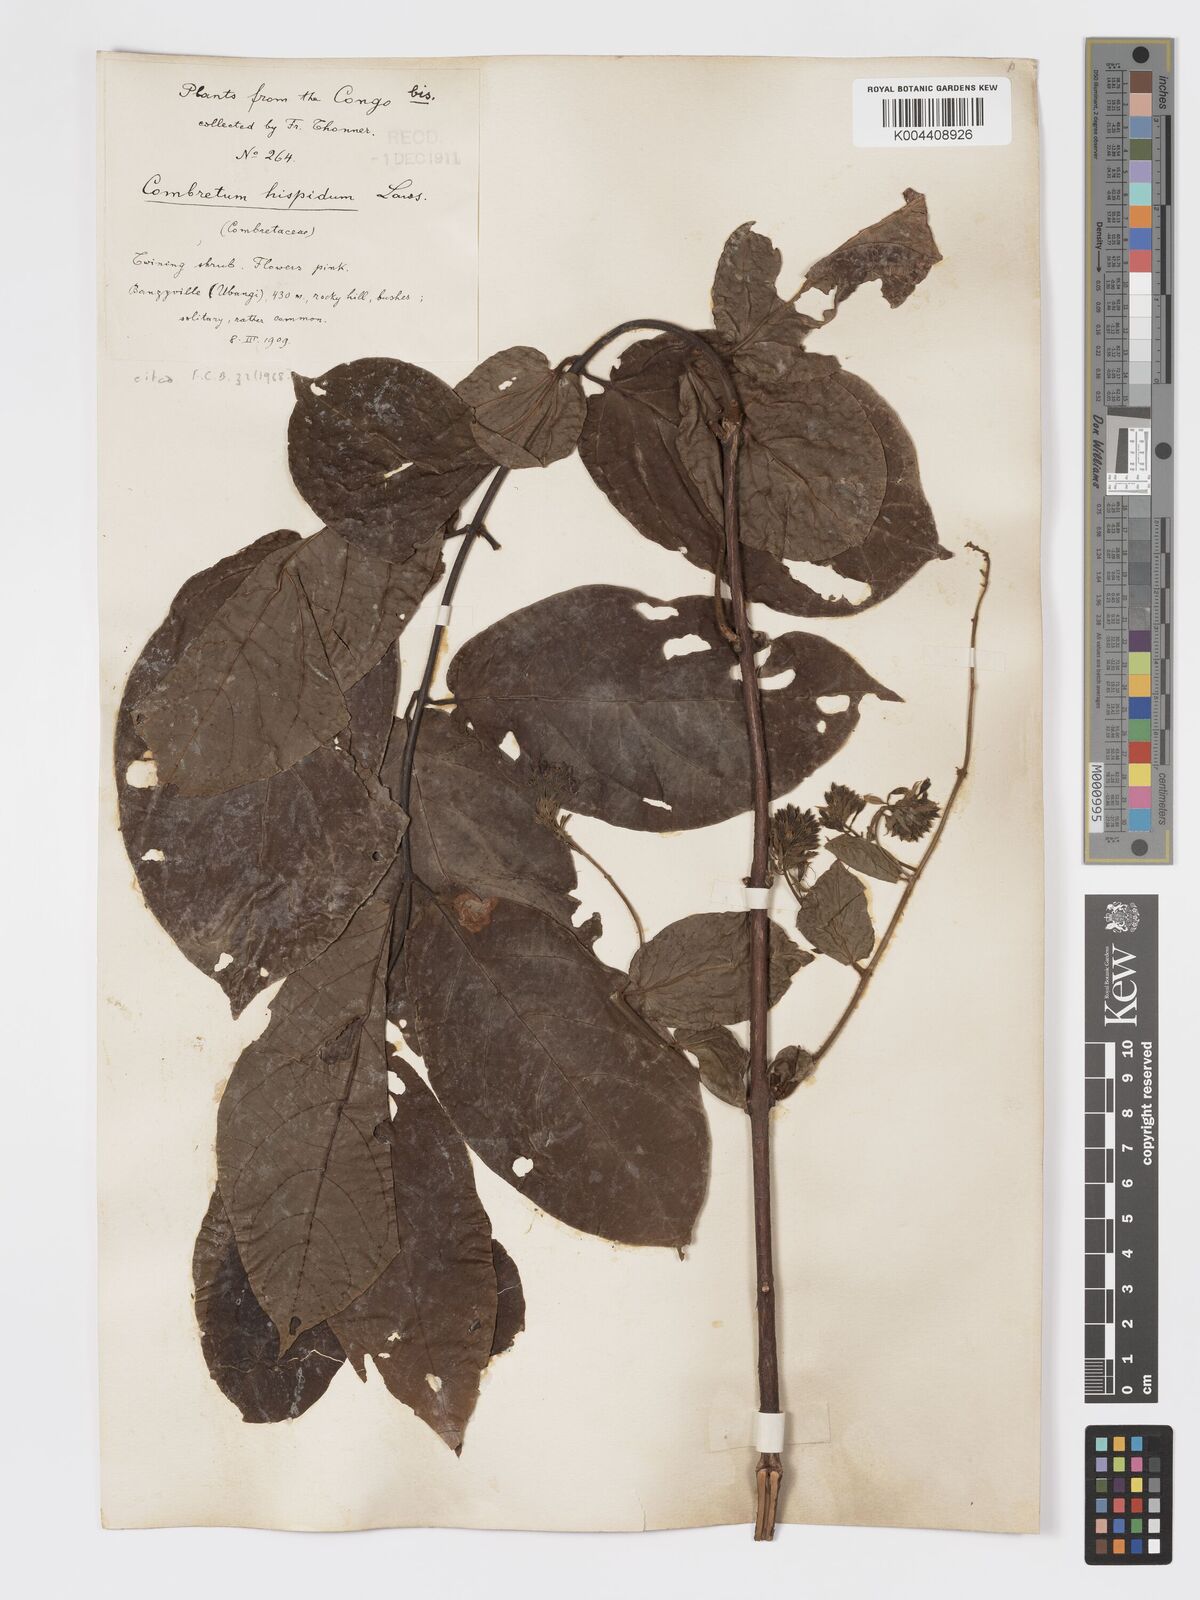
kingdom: Plantae
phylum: Tracheophyta
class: Magnoliopsida
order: Myrtales
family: Combretaceae
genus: Combretum
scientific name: Combretum comosum
